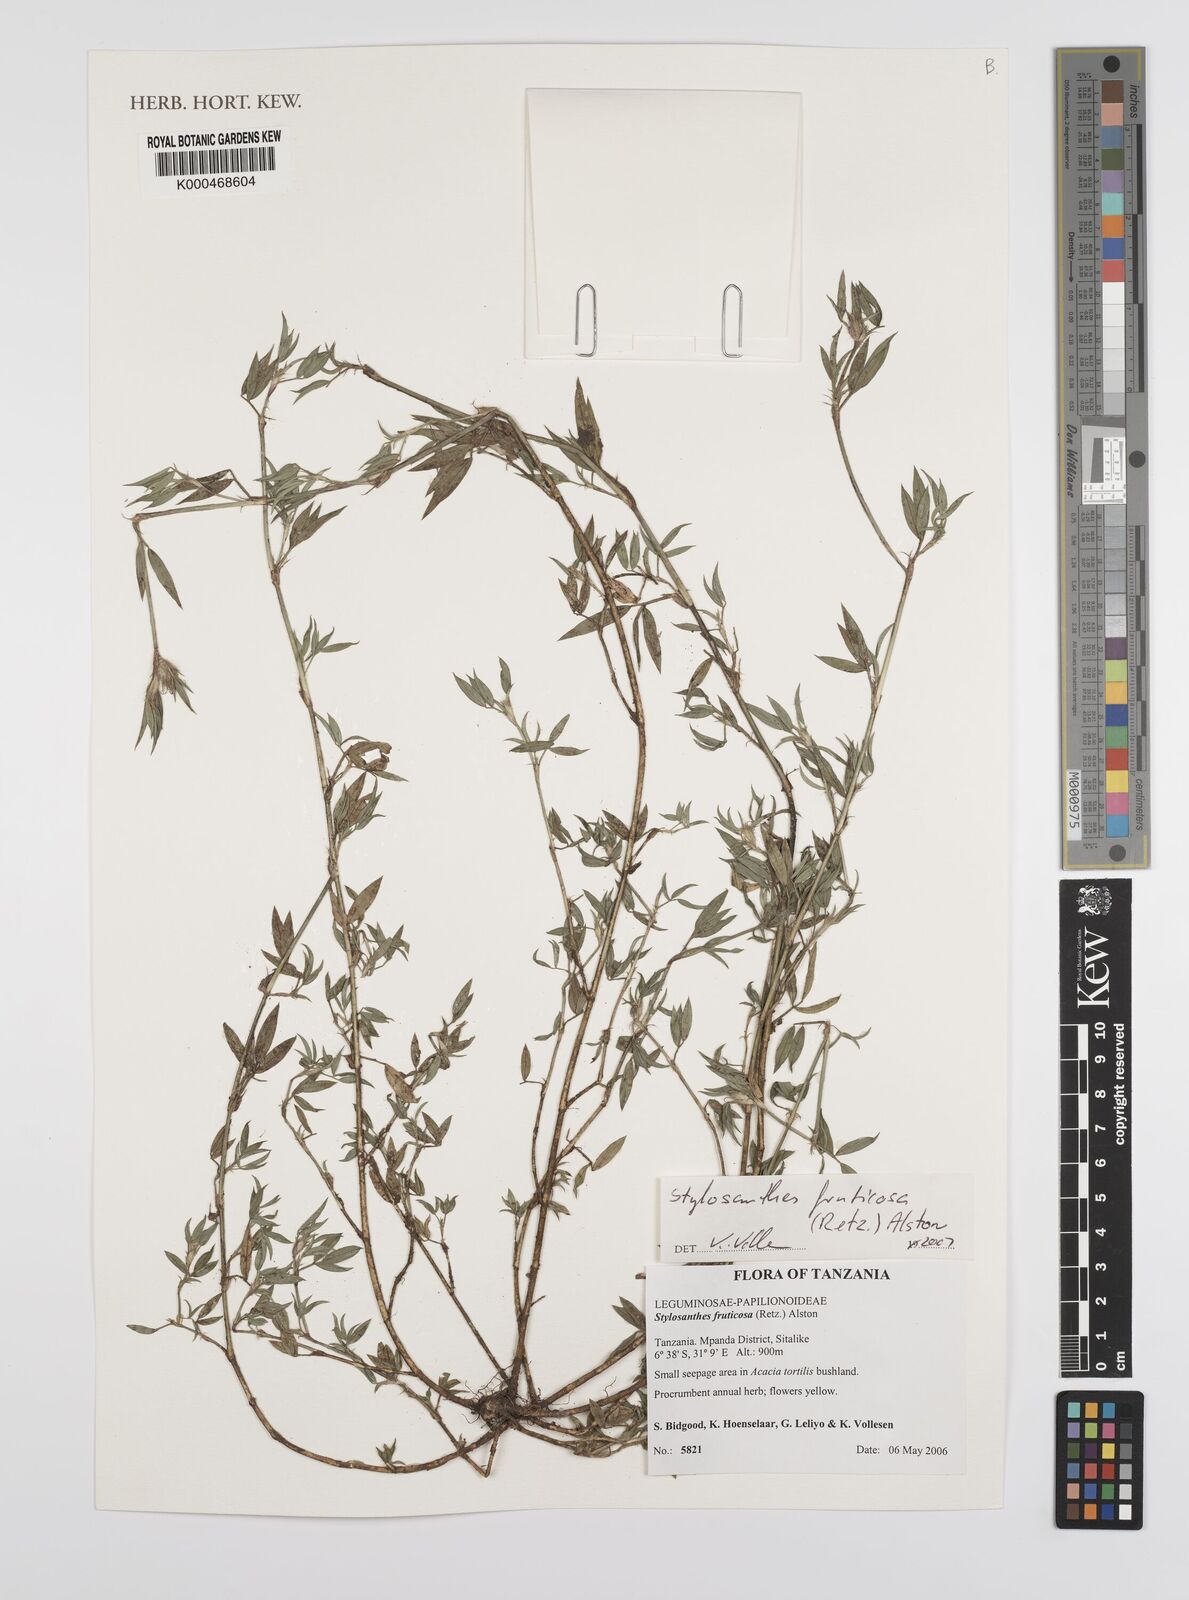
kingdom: Plantae
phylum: Tracheophyta
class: Magnoliopsida
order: Fabales
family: Fabaceae
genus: Stylosanthes
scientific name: Stylosanthes fruticosa
